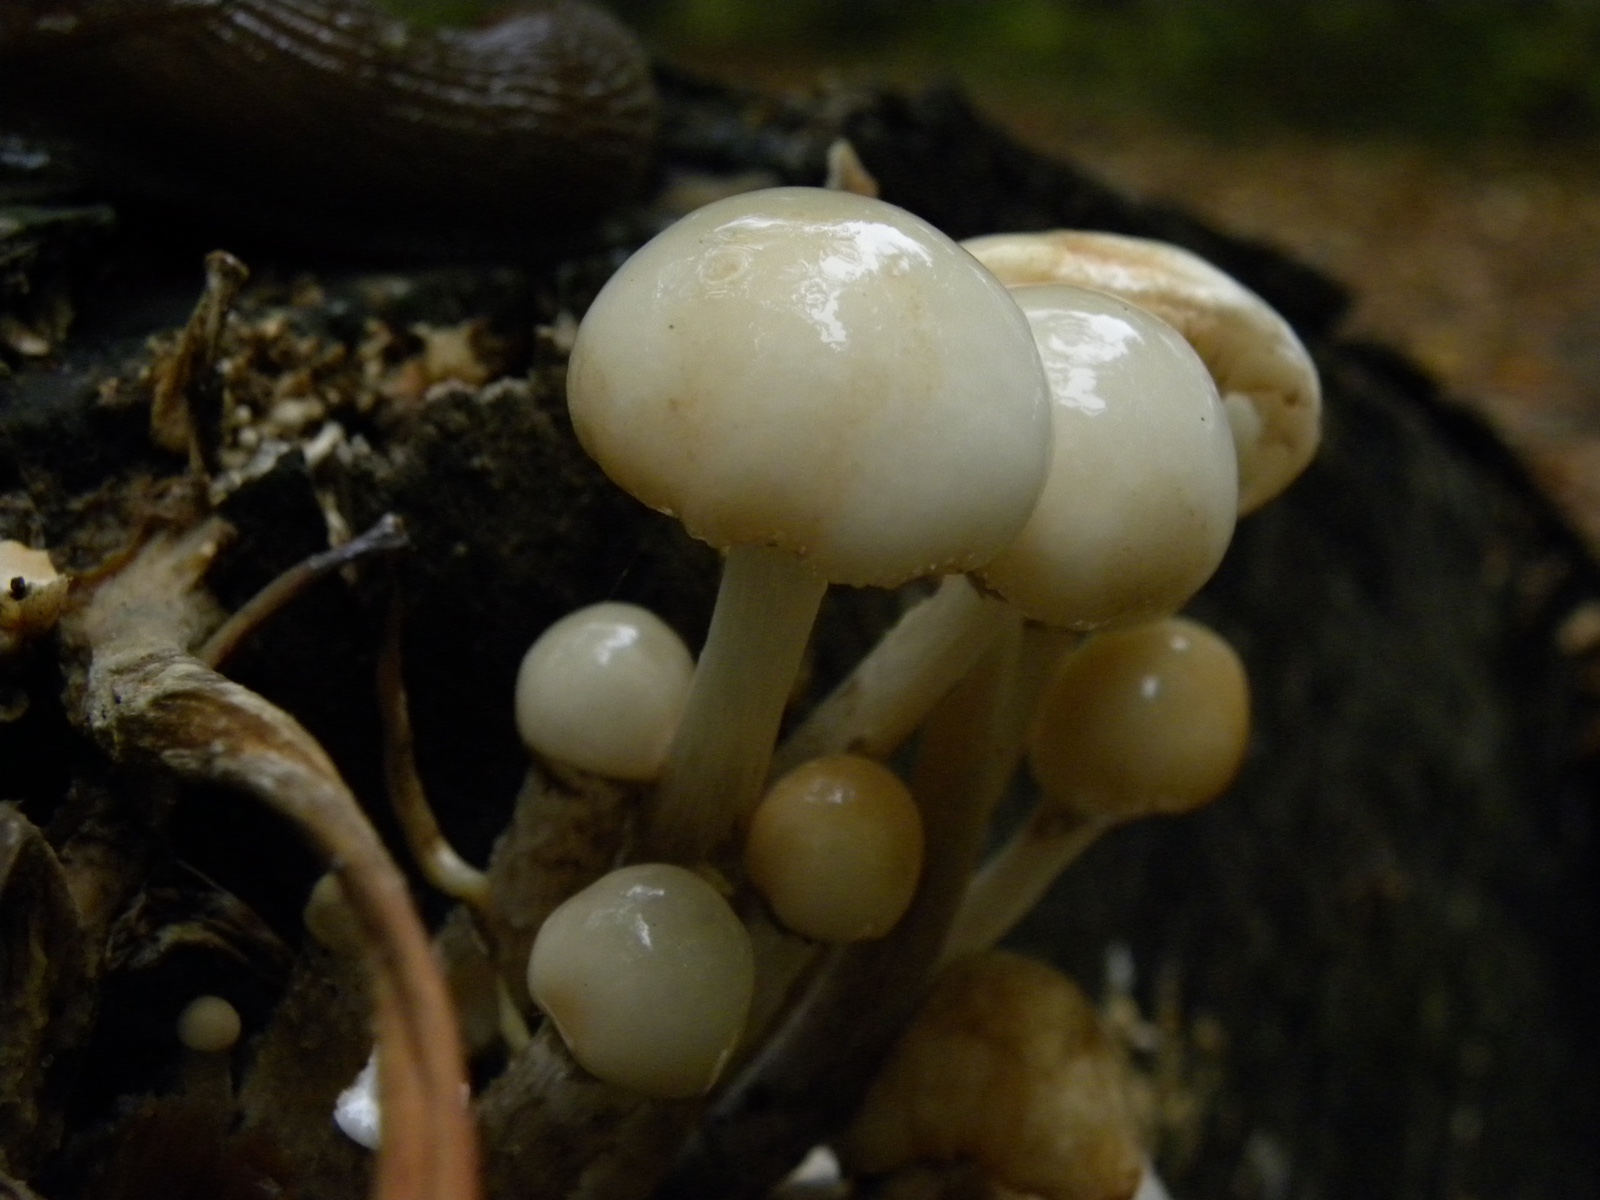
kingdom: Fungi
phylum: Basidiomycota
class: Agaricomycetes
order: Agaricales
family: Physalacriaceae
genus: Mucidula
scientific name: Mucidula mucida
